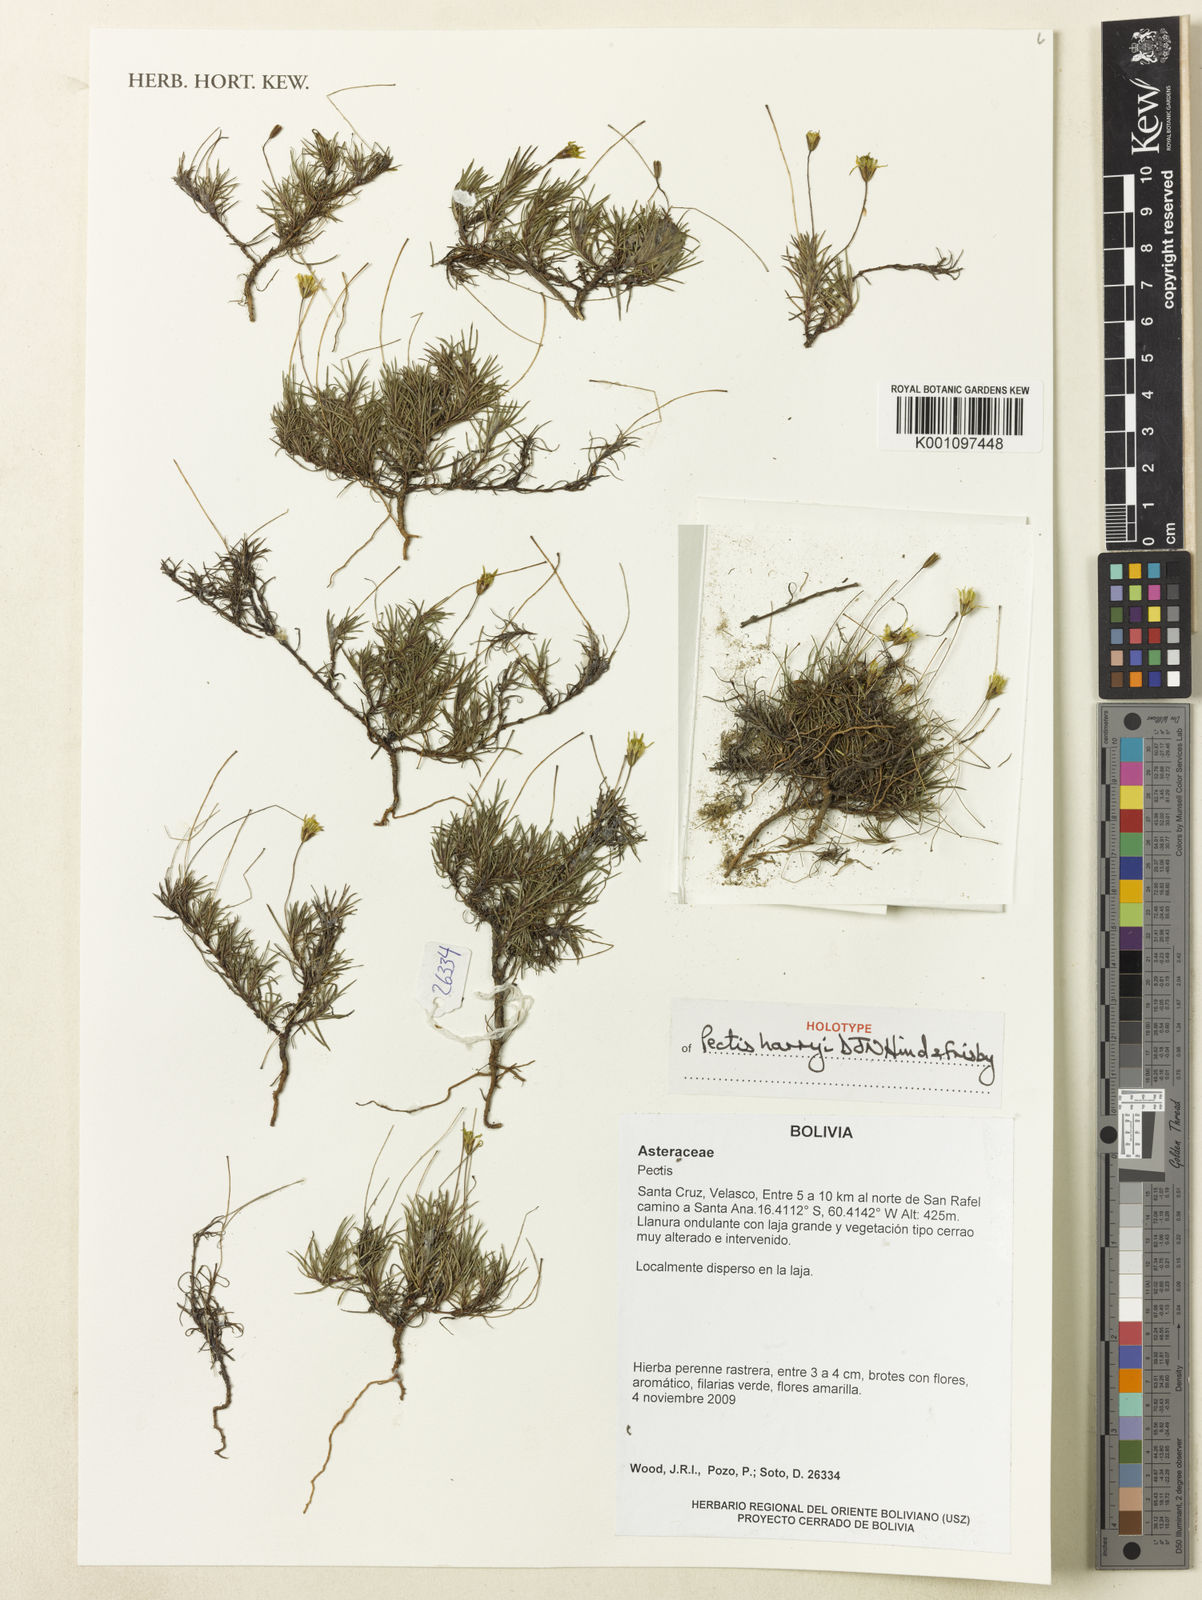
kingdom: Plantae
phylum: Tracheophyta
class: Magnoliopsida
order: Asterales
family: Asteraceae
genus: Pectis
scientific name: Pectis harryi
